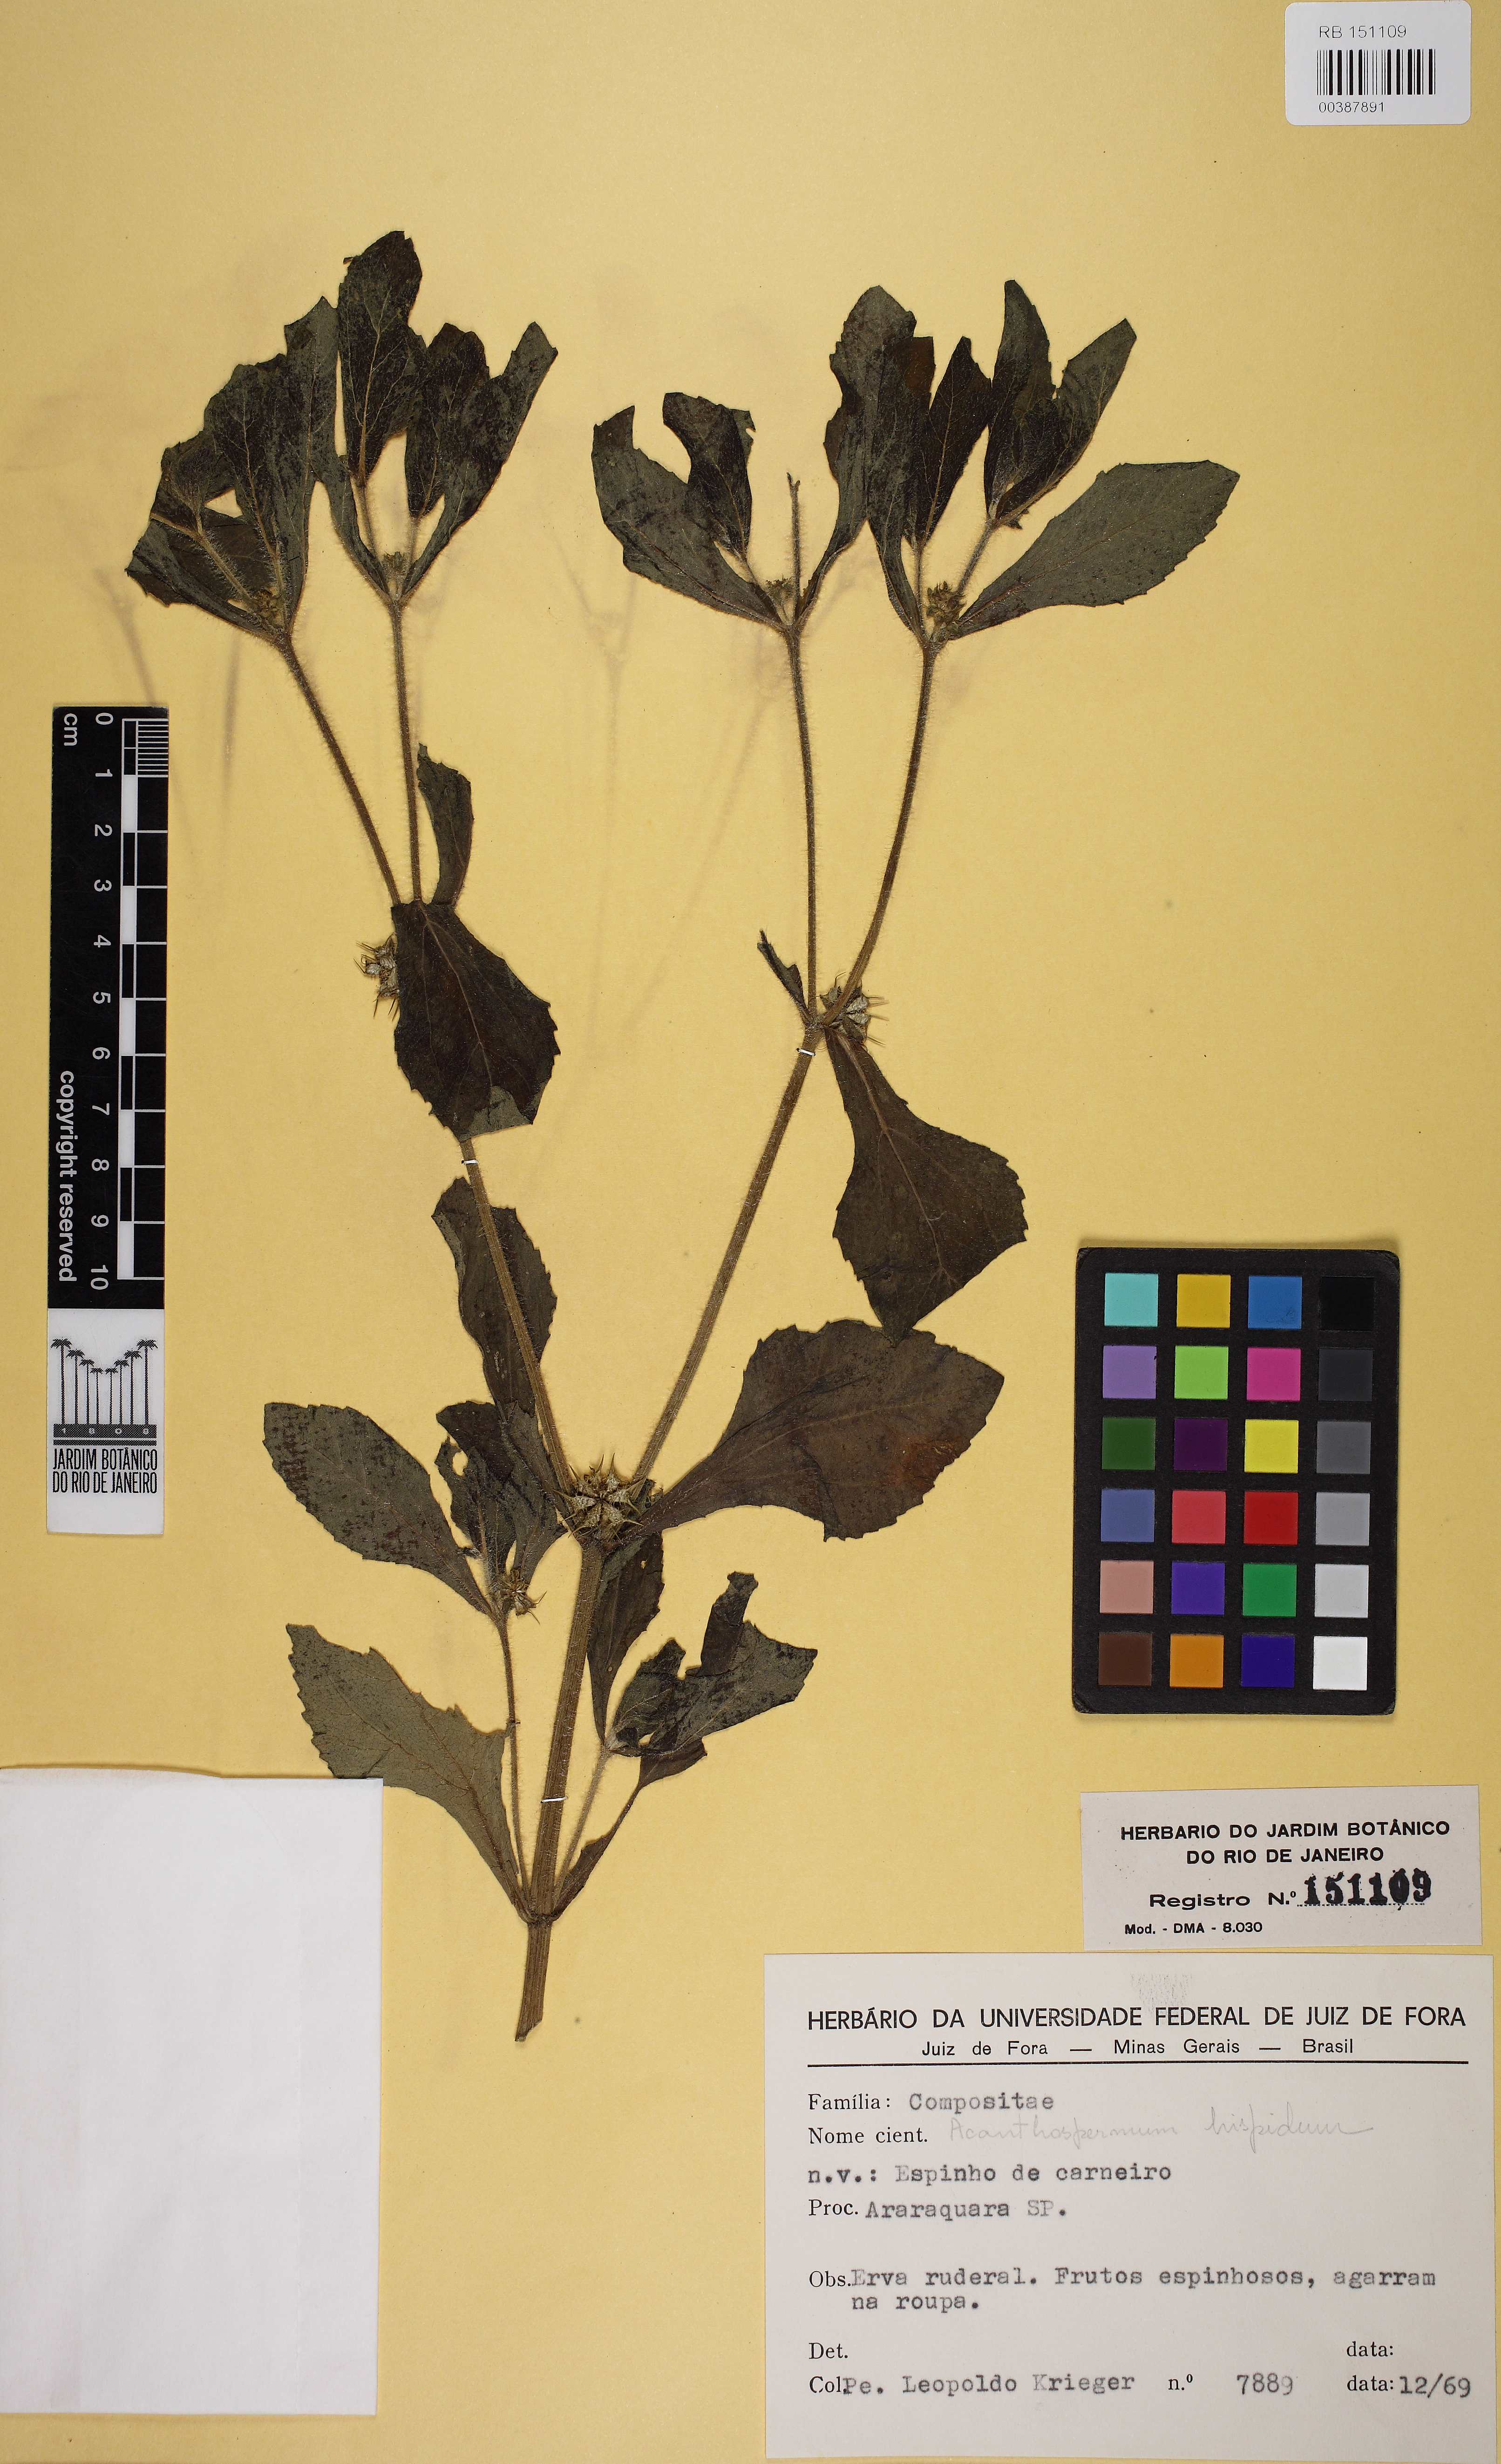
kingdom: Plantae
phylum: Tracheophyta
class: Magnoliopsida
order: Asterales
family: Asteraceae
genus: Acanthospermum
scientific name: Acanthospermum hispidum
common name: Hispid starbur
